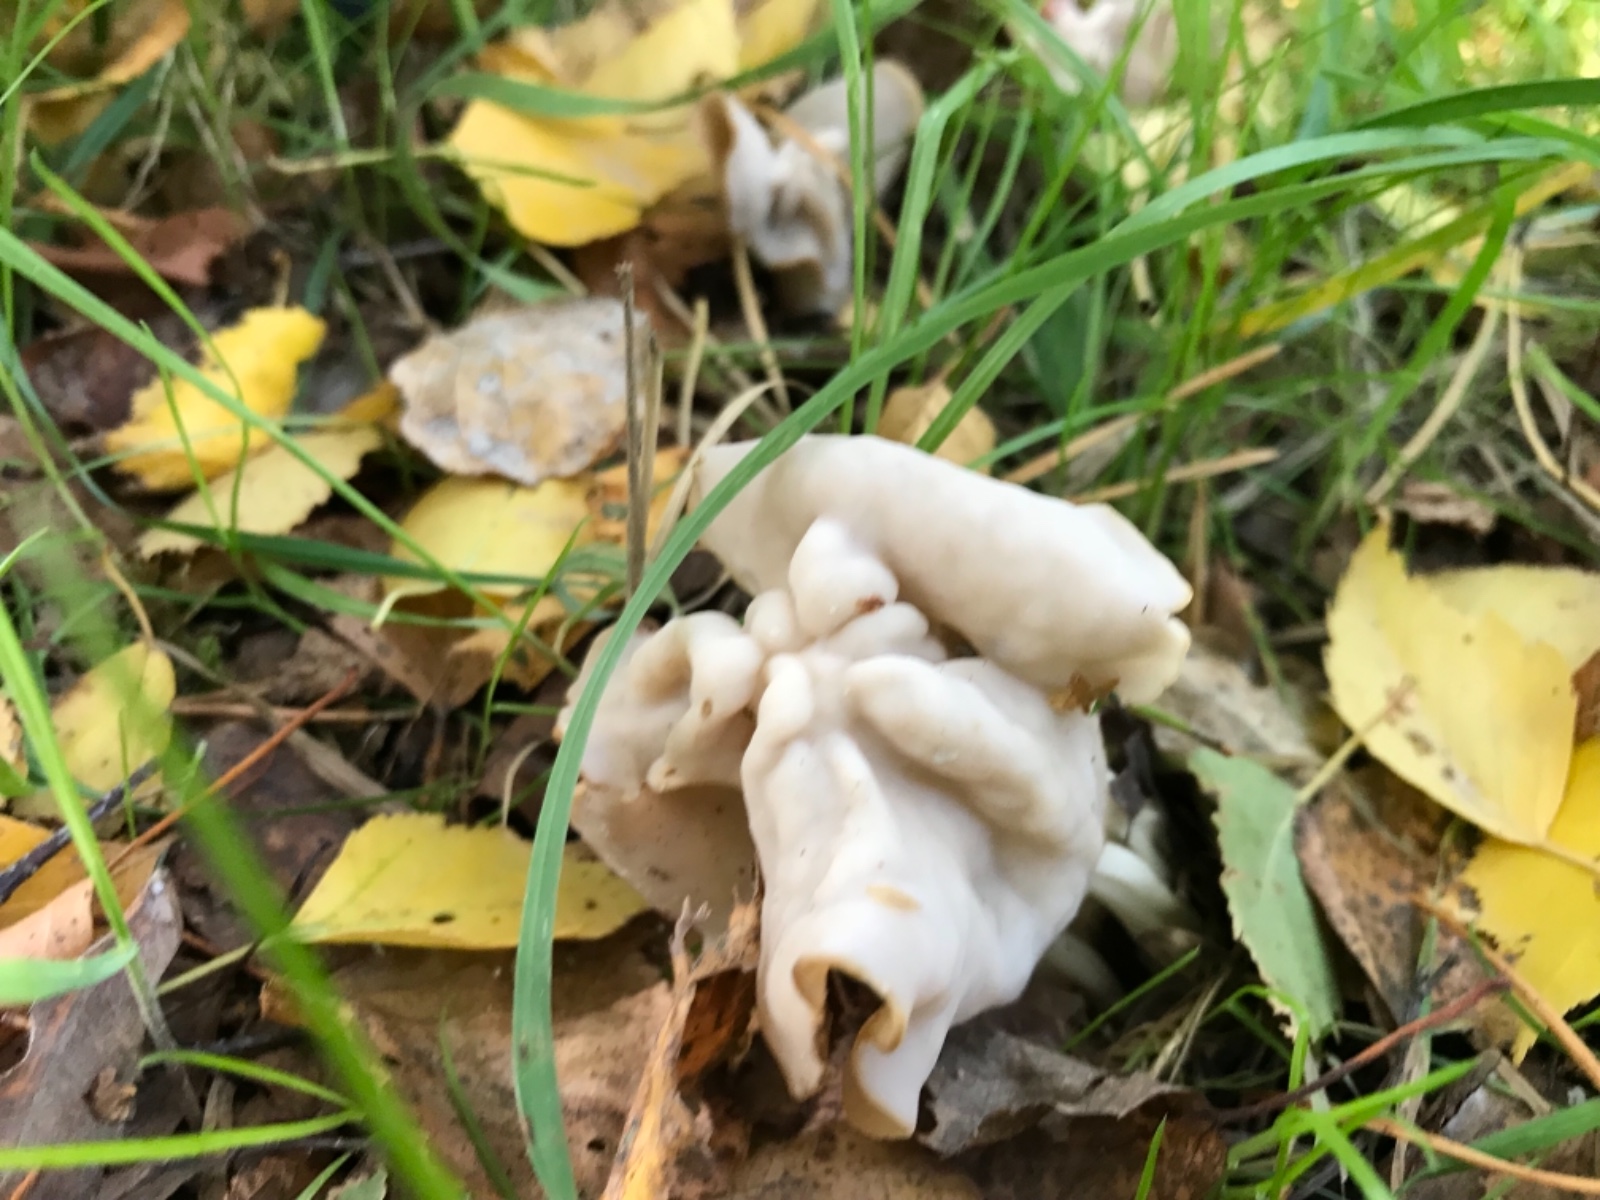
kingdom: Fungi
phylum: Ascomycota
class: Pezizomycetes
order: Pezizales
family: Helvellaceae
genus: Helvella
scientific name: Helvella crispa
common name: kruset foldhat
